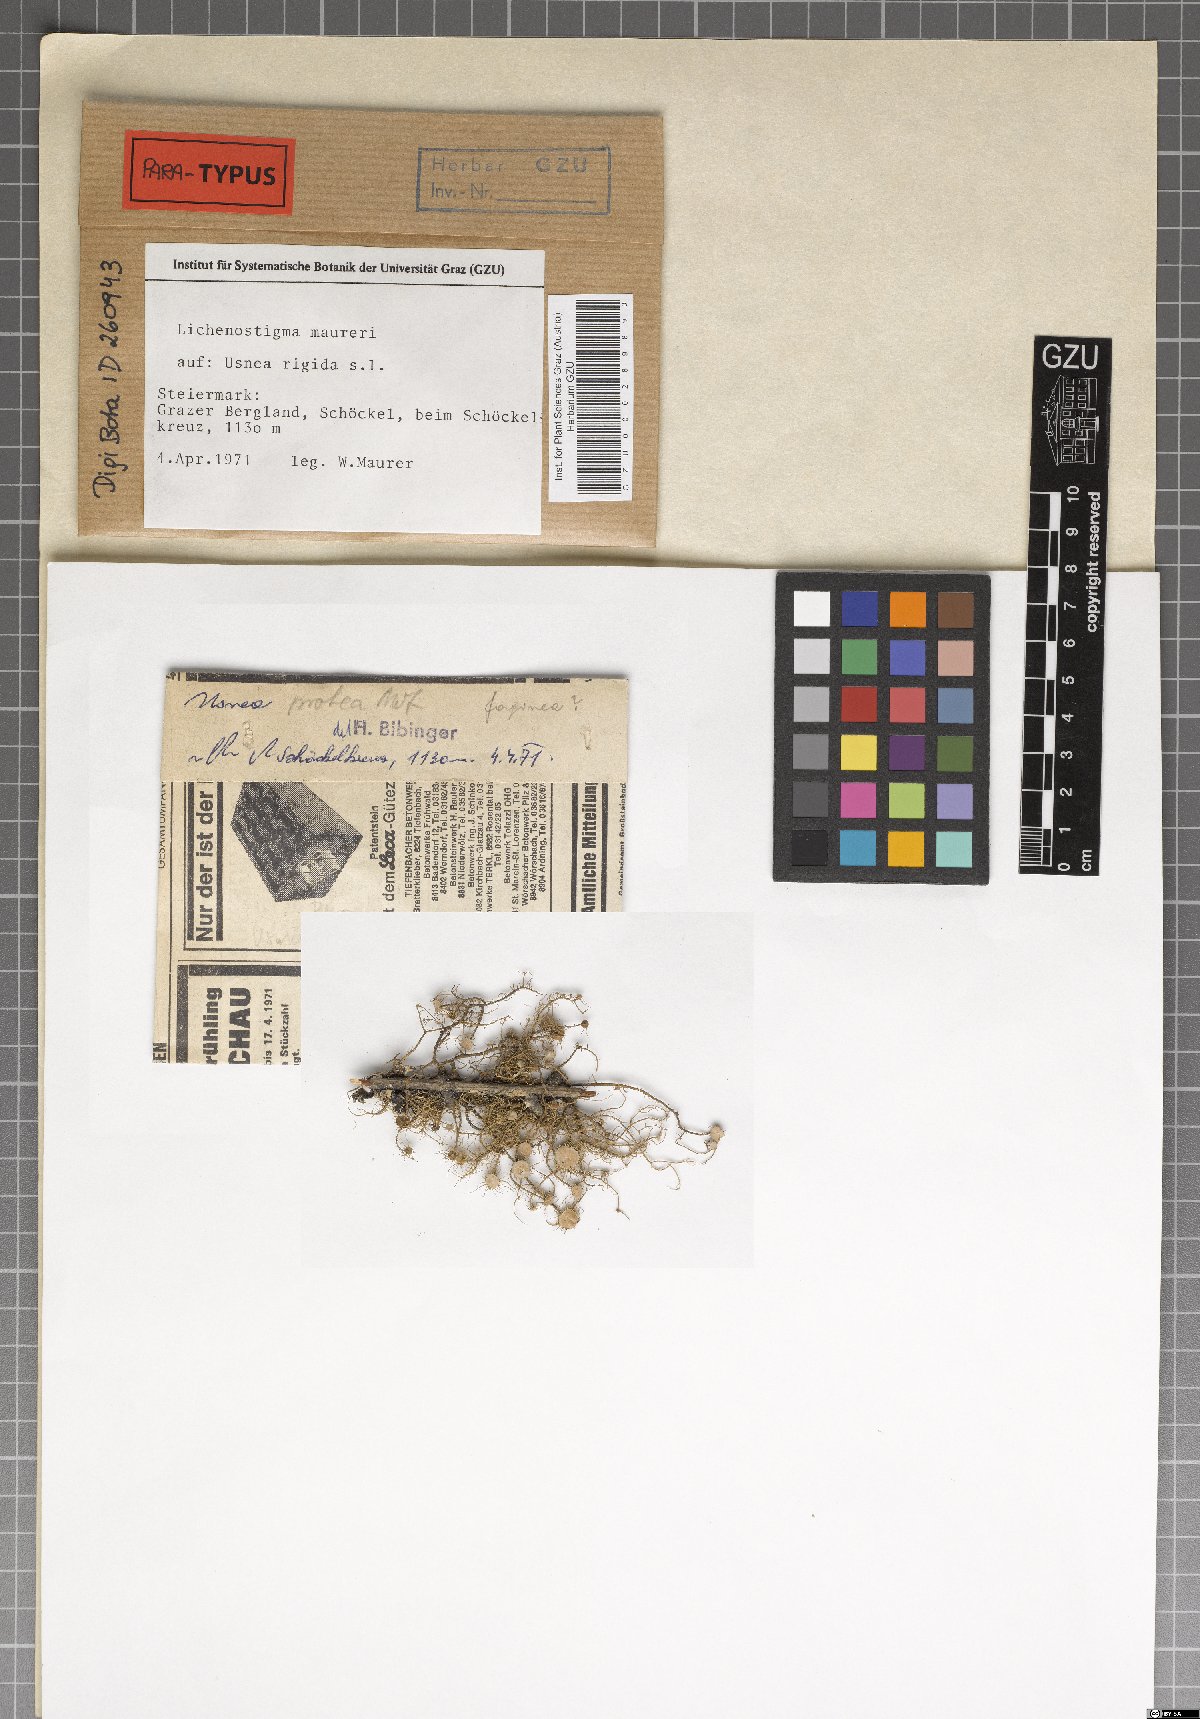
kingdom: Fungi
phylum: Ascomycota
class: Arthoniomycetes
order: Lichenostigmatales
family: Phaeococcomycetaceae
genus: Lichenostigma
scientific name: Lichenostigma maureri
